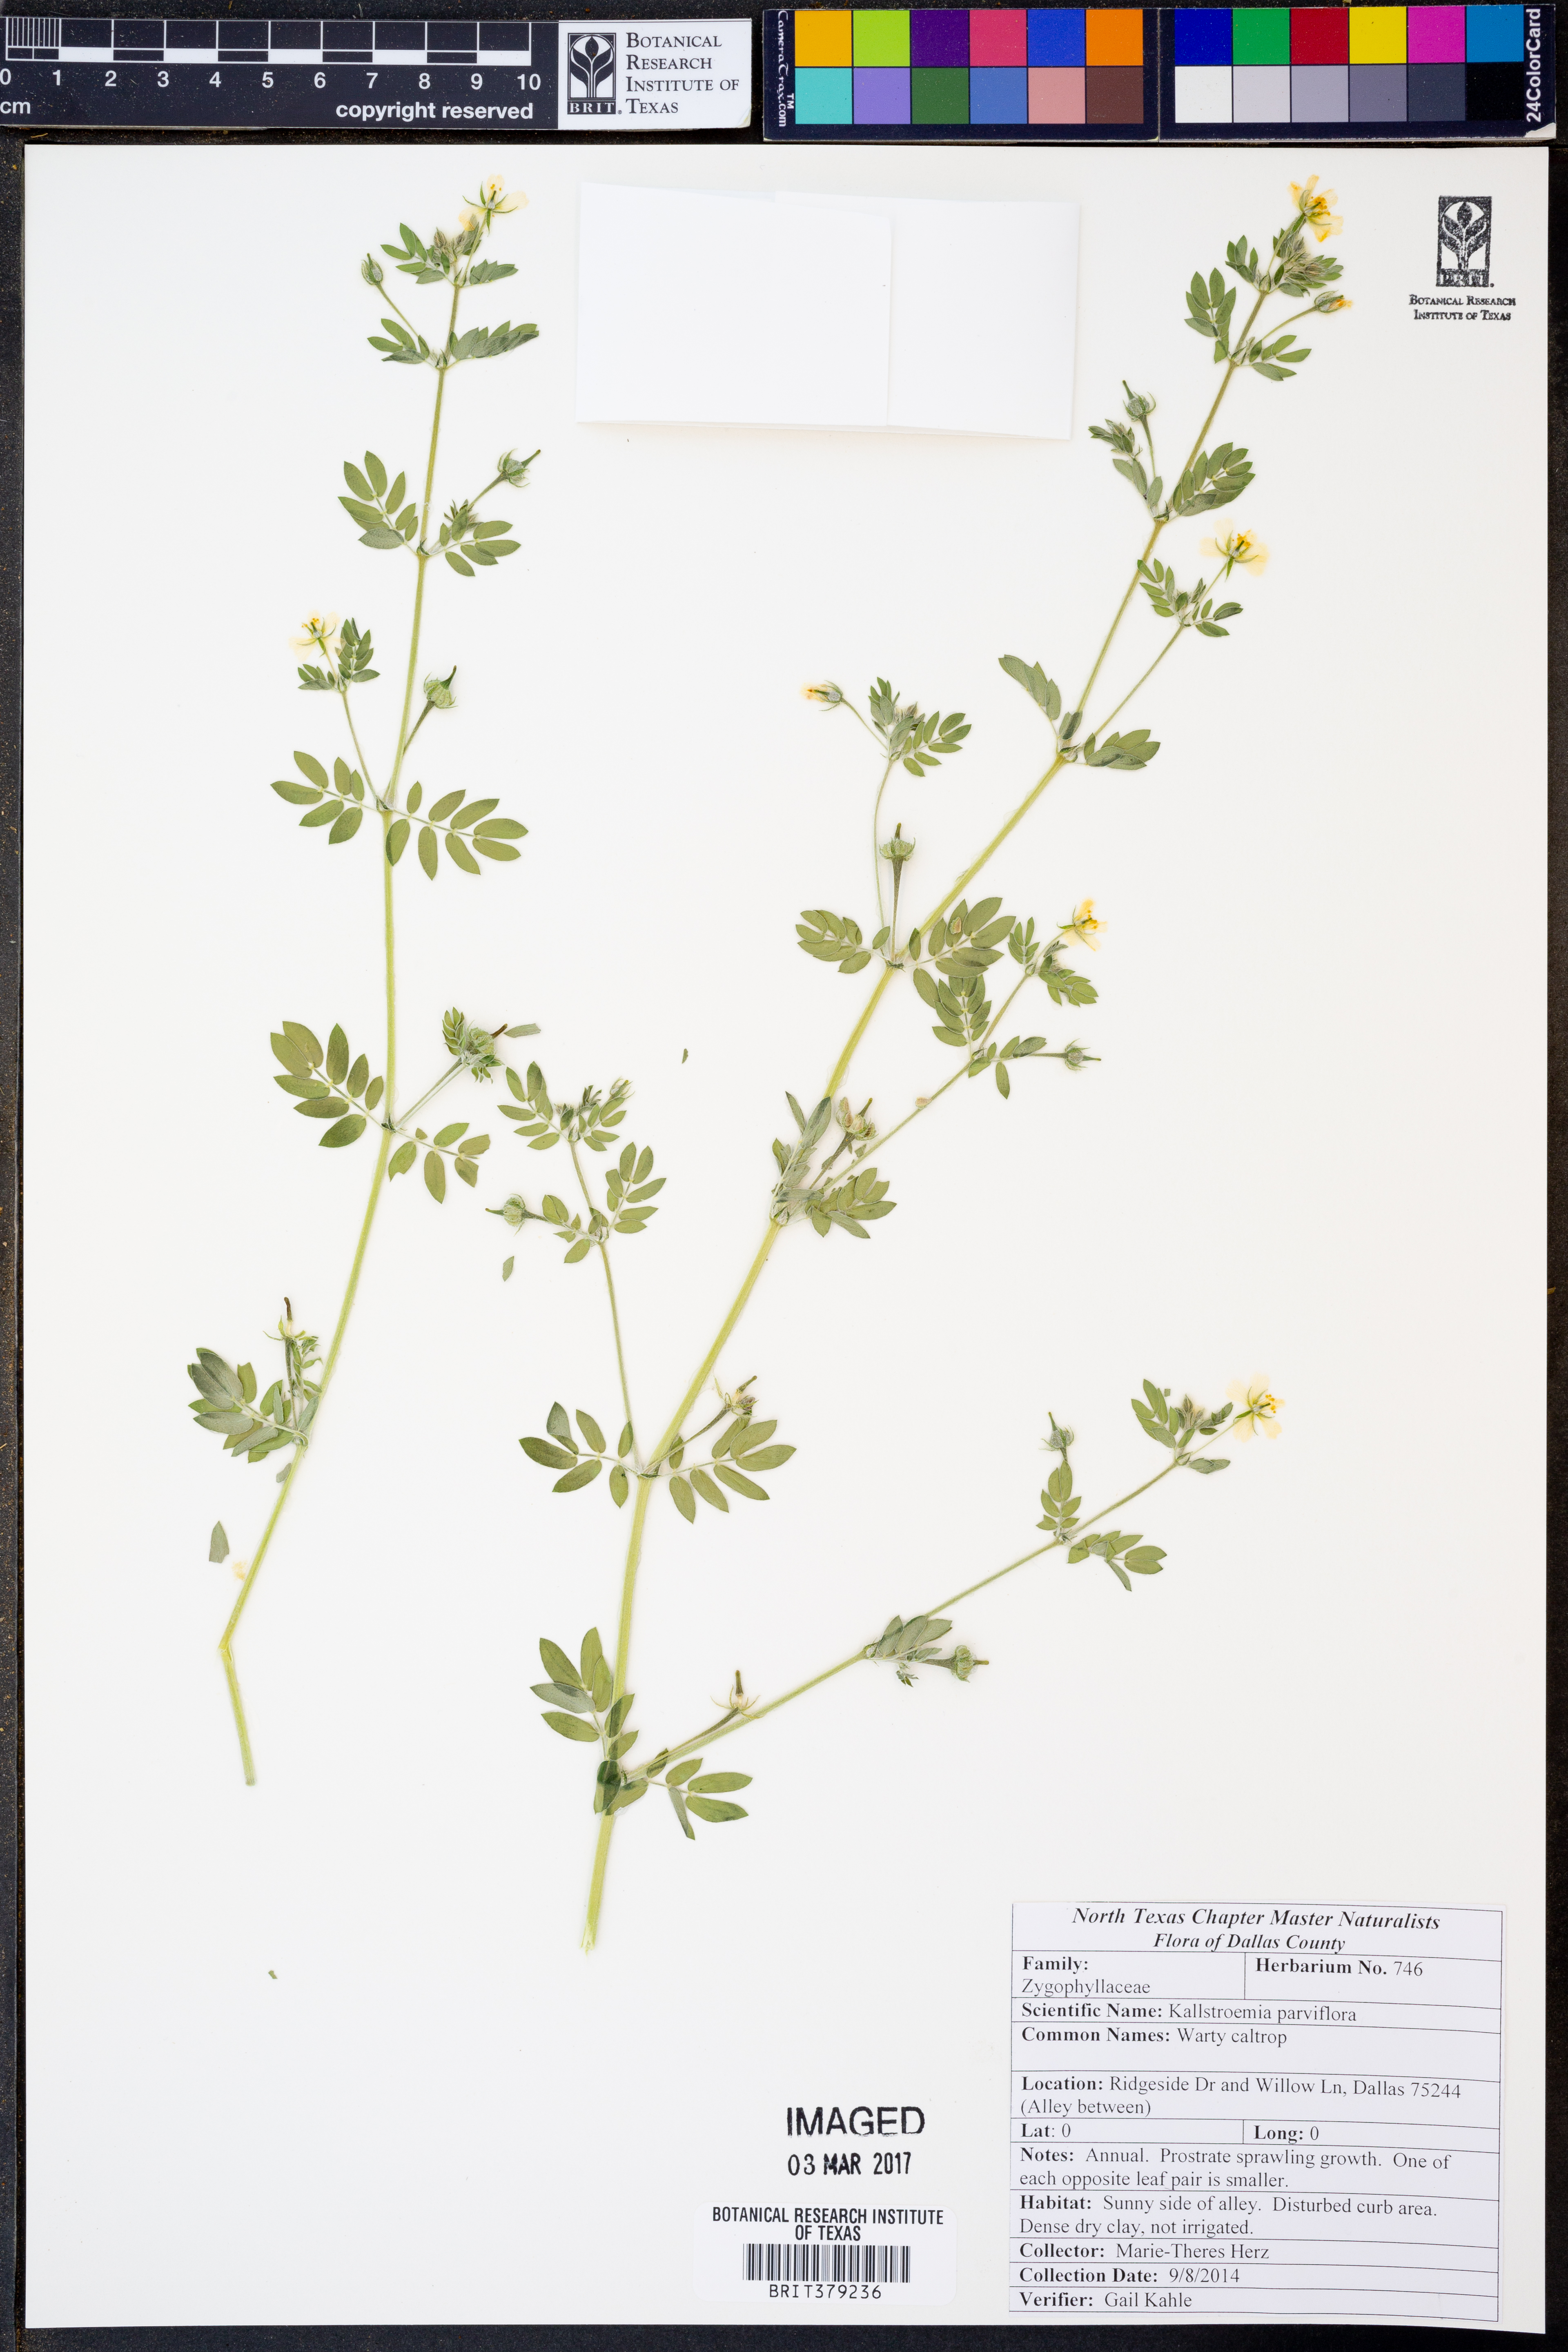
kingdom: Plantae
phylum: Tracheophyta
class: Magnoliopsida
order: Zygophyllales
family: Zygophyllaceae
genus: Kallstroemia
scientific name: Kallstroemia parviflora
